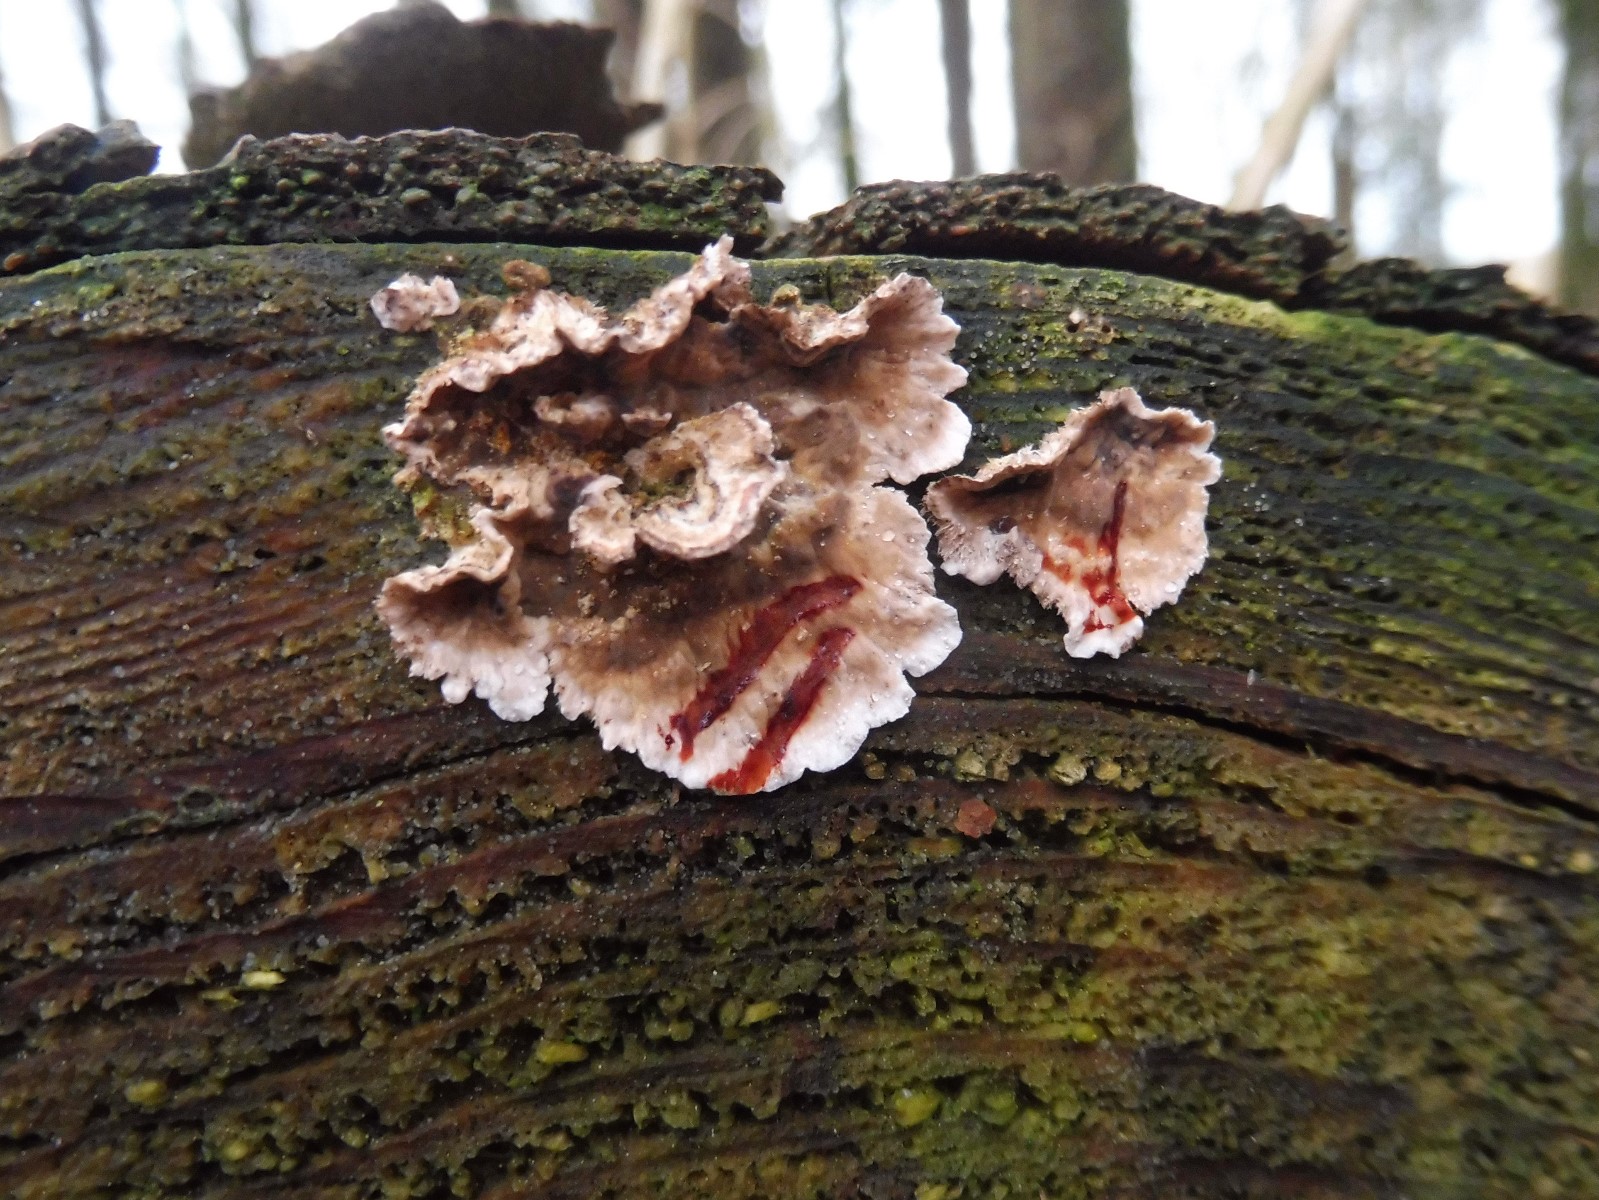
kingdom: Fungi
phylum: Basidiomycota
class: Agaricomycetes
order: Russulales
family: Stereaceae
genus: Stereum
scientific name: Stereum sanguinolentum
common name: blødende lædersvamp
